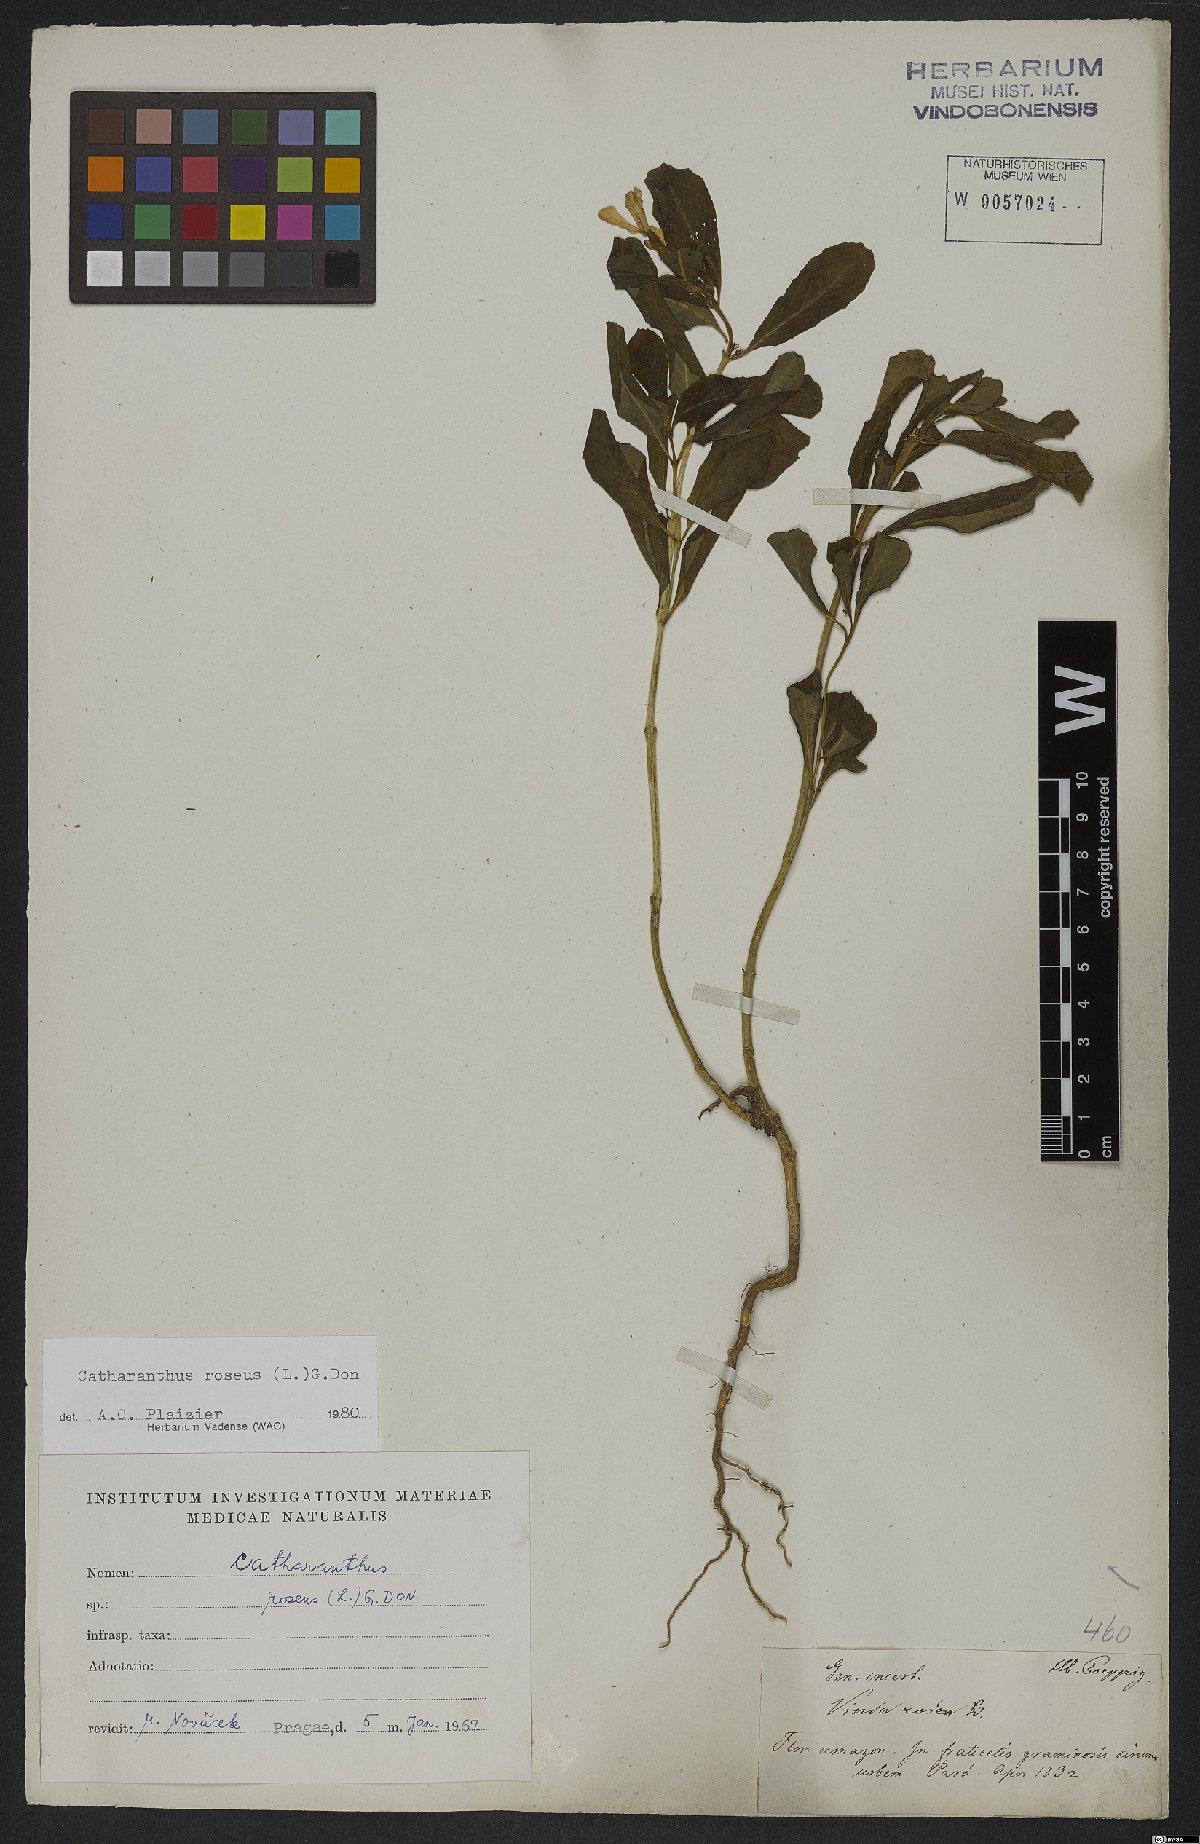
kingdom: Plantae
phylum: Tracheophyta
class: Magnoliopsida
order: Gentianales
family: Apocynaceae
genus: Catharanthus
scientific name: Catharanthus roseus
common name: Madagascar periwinkle
